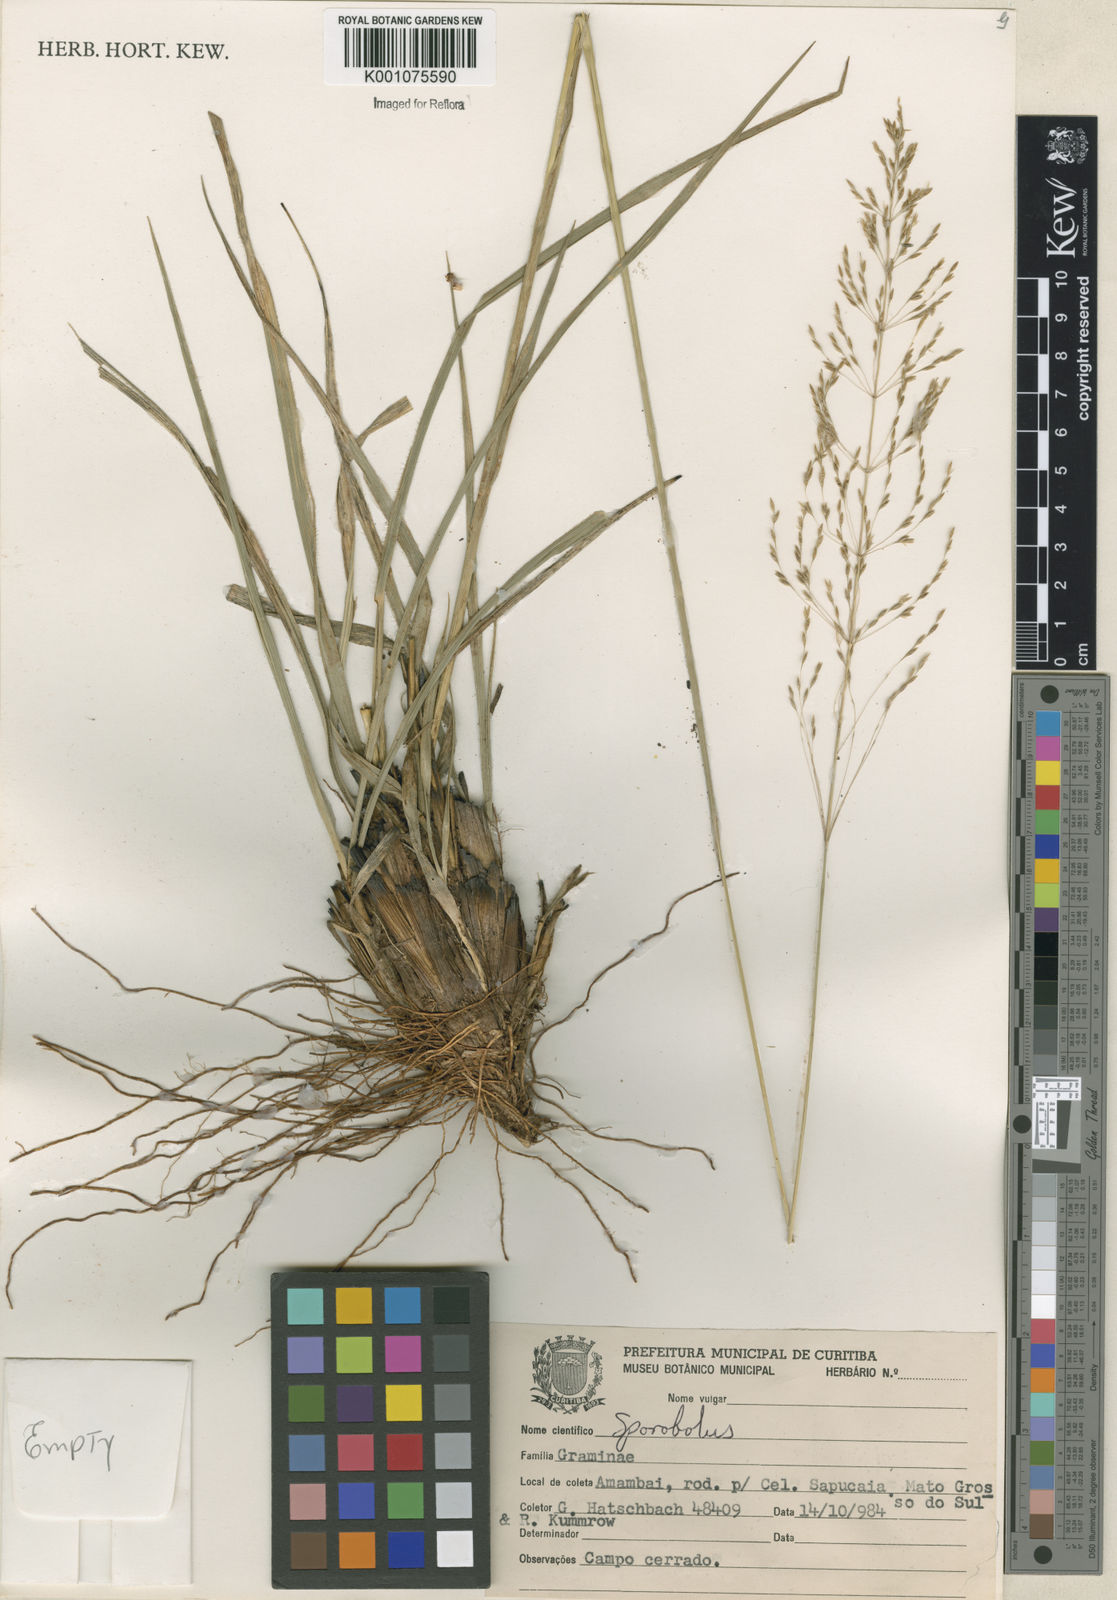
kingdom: Plantae
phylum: Tracheophyta
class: Liliopsida
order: Poales
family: Poaceae
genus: Sporobolus
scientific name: Sporobolus eximius
